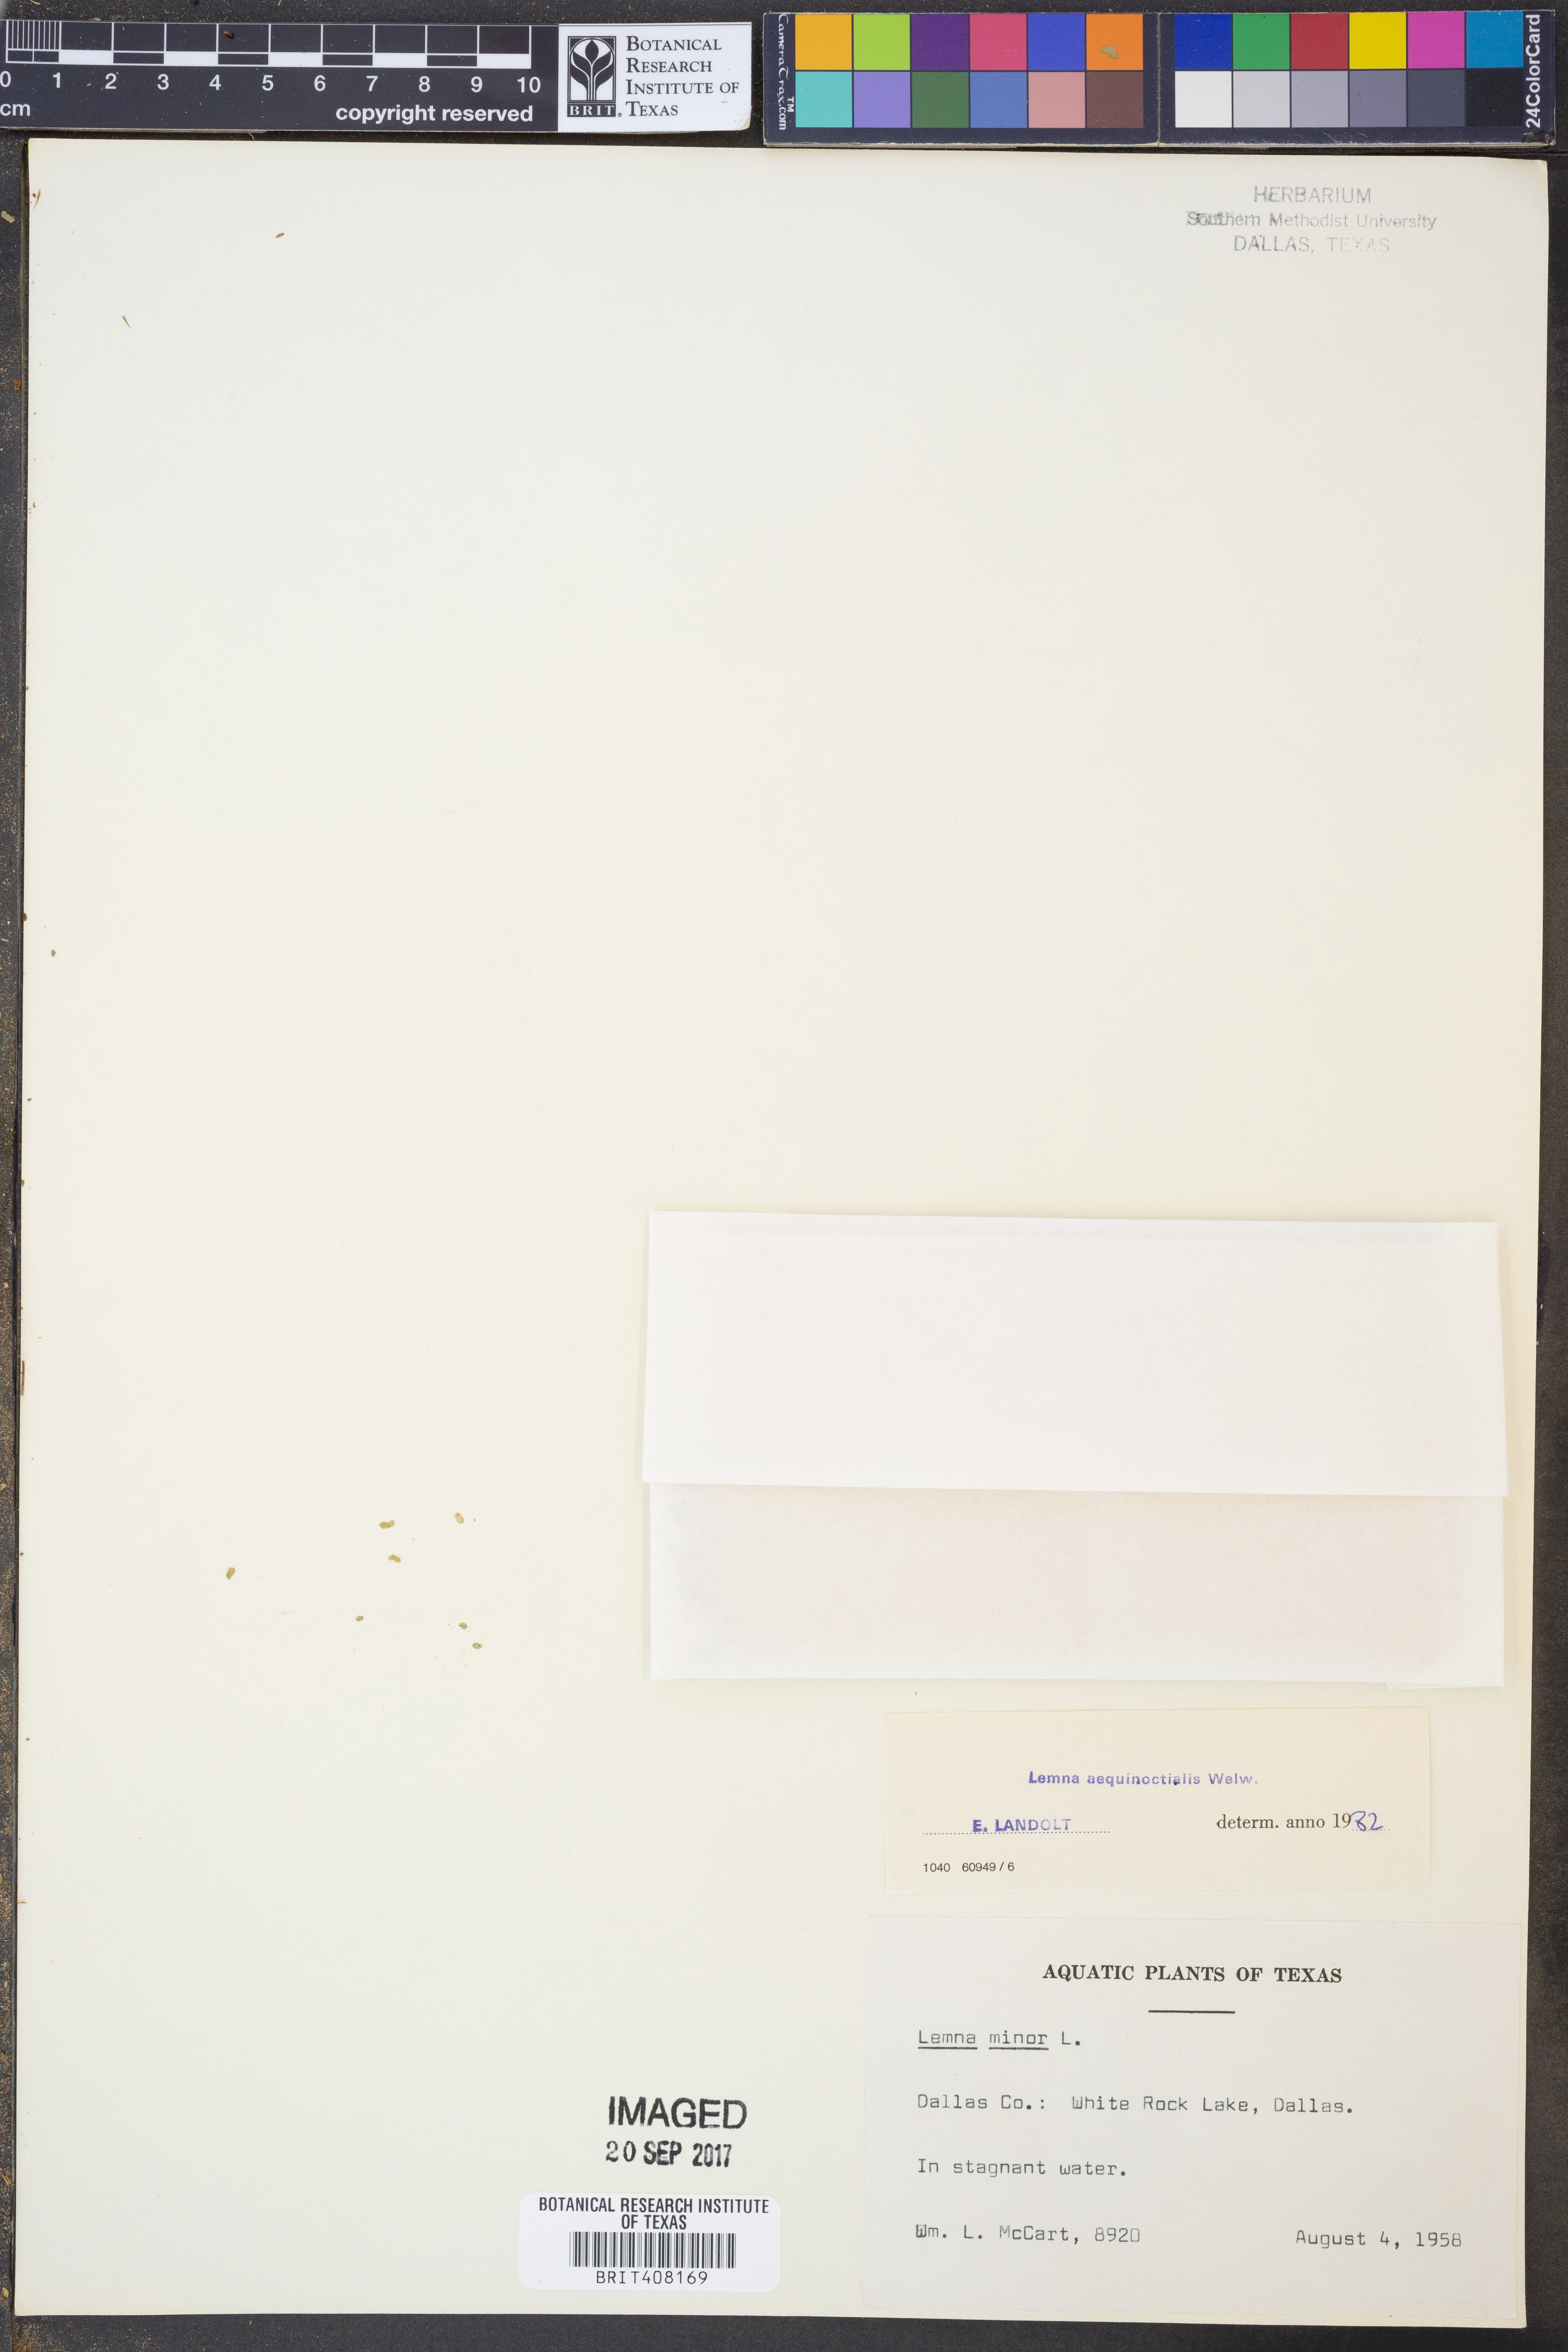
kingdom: Plantae
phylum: Tracheophyta
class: Liliopsida
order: Alismatales
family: Araceae
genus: Lemna
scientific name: Lemna aequinoctialis
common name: Duckweed
